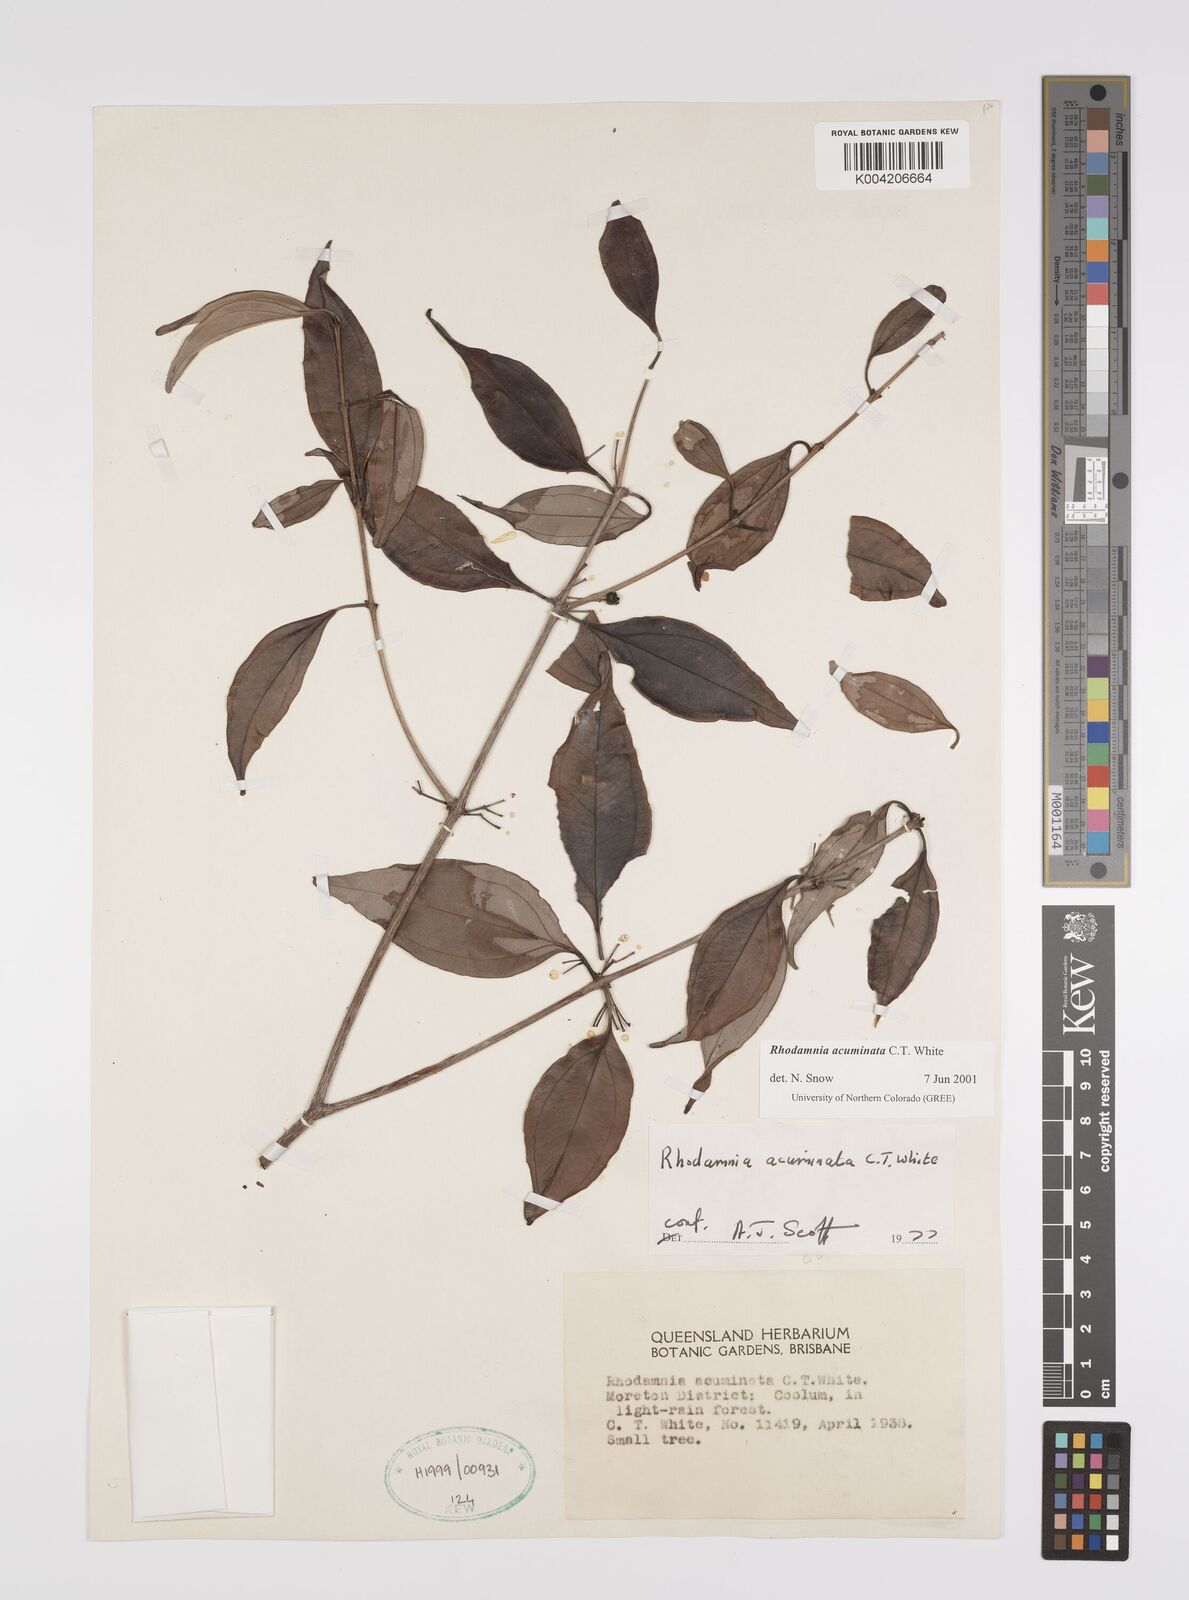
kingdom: Plantae
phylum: Tracheophyta
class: Magnoliopsida
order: Myrtales
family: Myrtaceae
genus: Rhodamnia
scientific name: Rhodamnia acuminata
